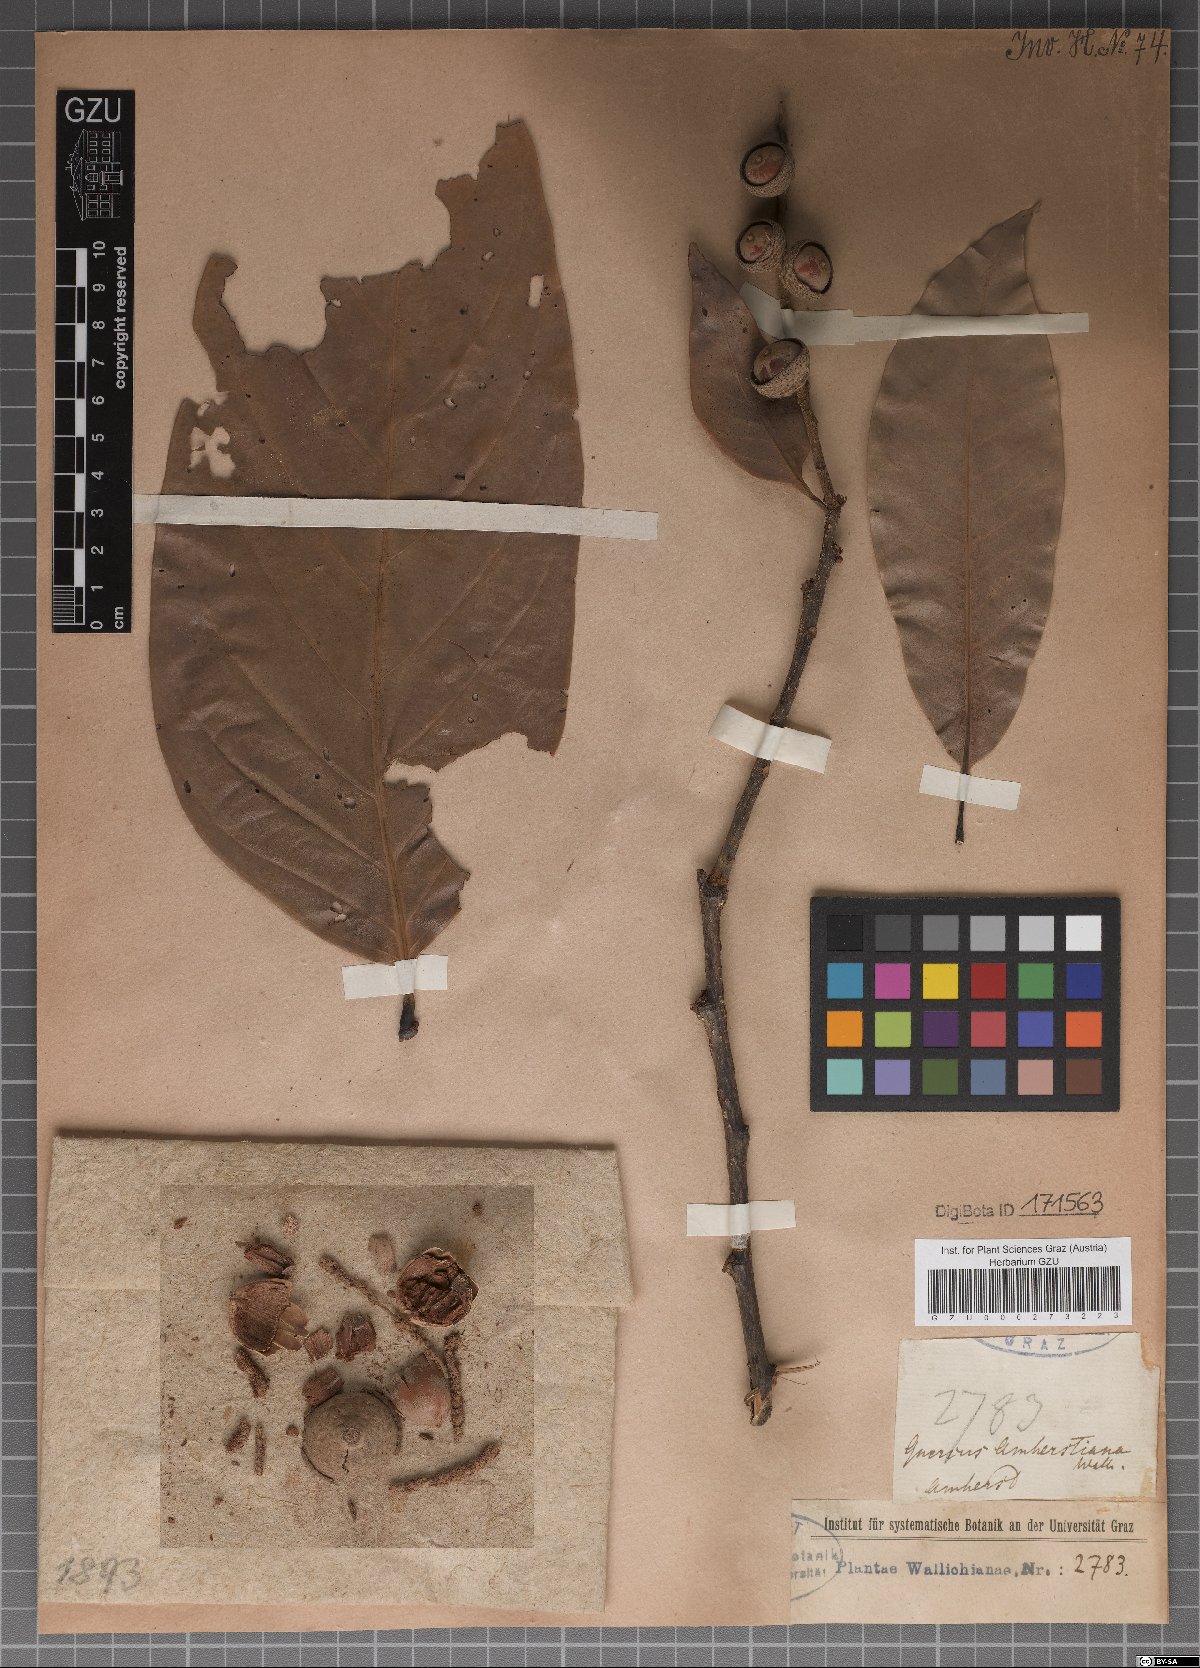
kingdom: Plantae
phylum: Tracheophyta
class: Magnoliopsida
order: Fagales
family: Fagaceae
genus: Quercus
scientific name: Quercus amherstiana
